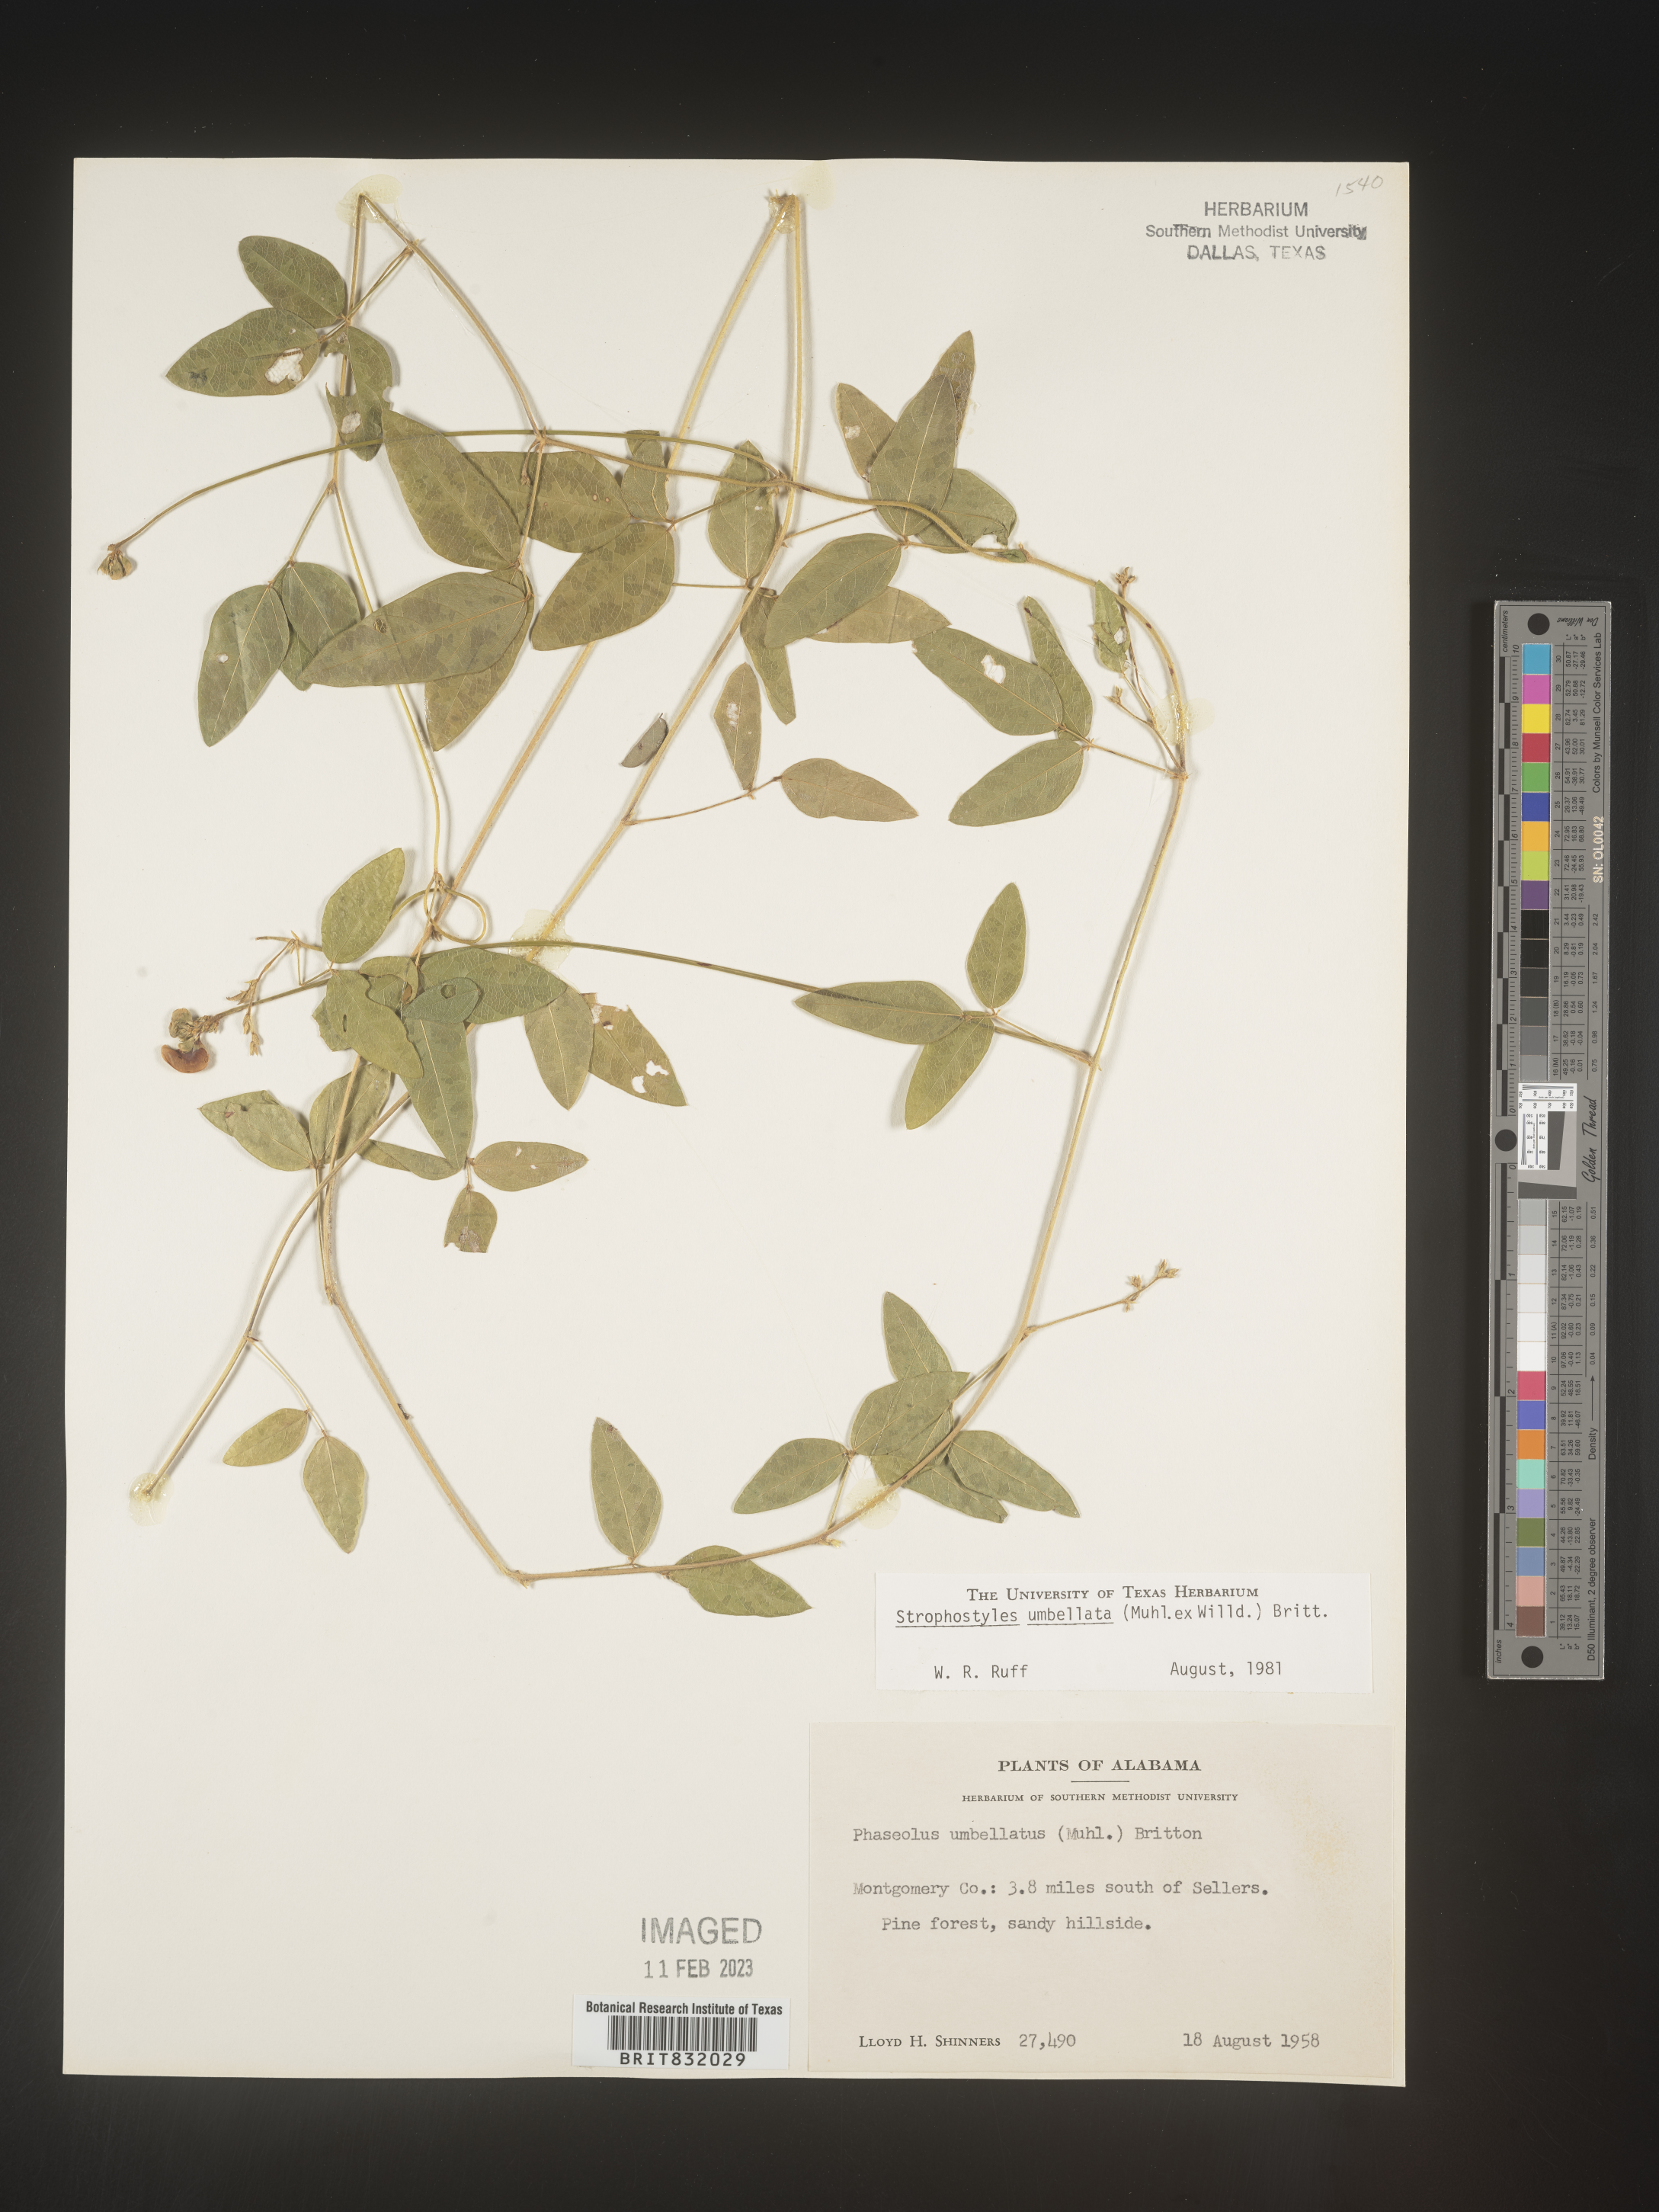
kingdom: Plantae
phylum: Tracheophyta
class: Magnoliopsida
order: Fabales
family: Fabaceae
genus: Strophostyles
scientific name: Strophostyles umbellata
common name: Perennial wild bean
